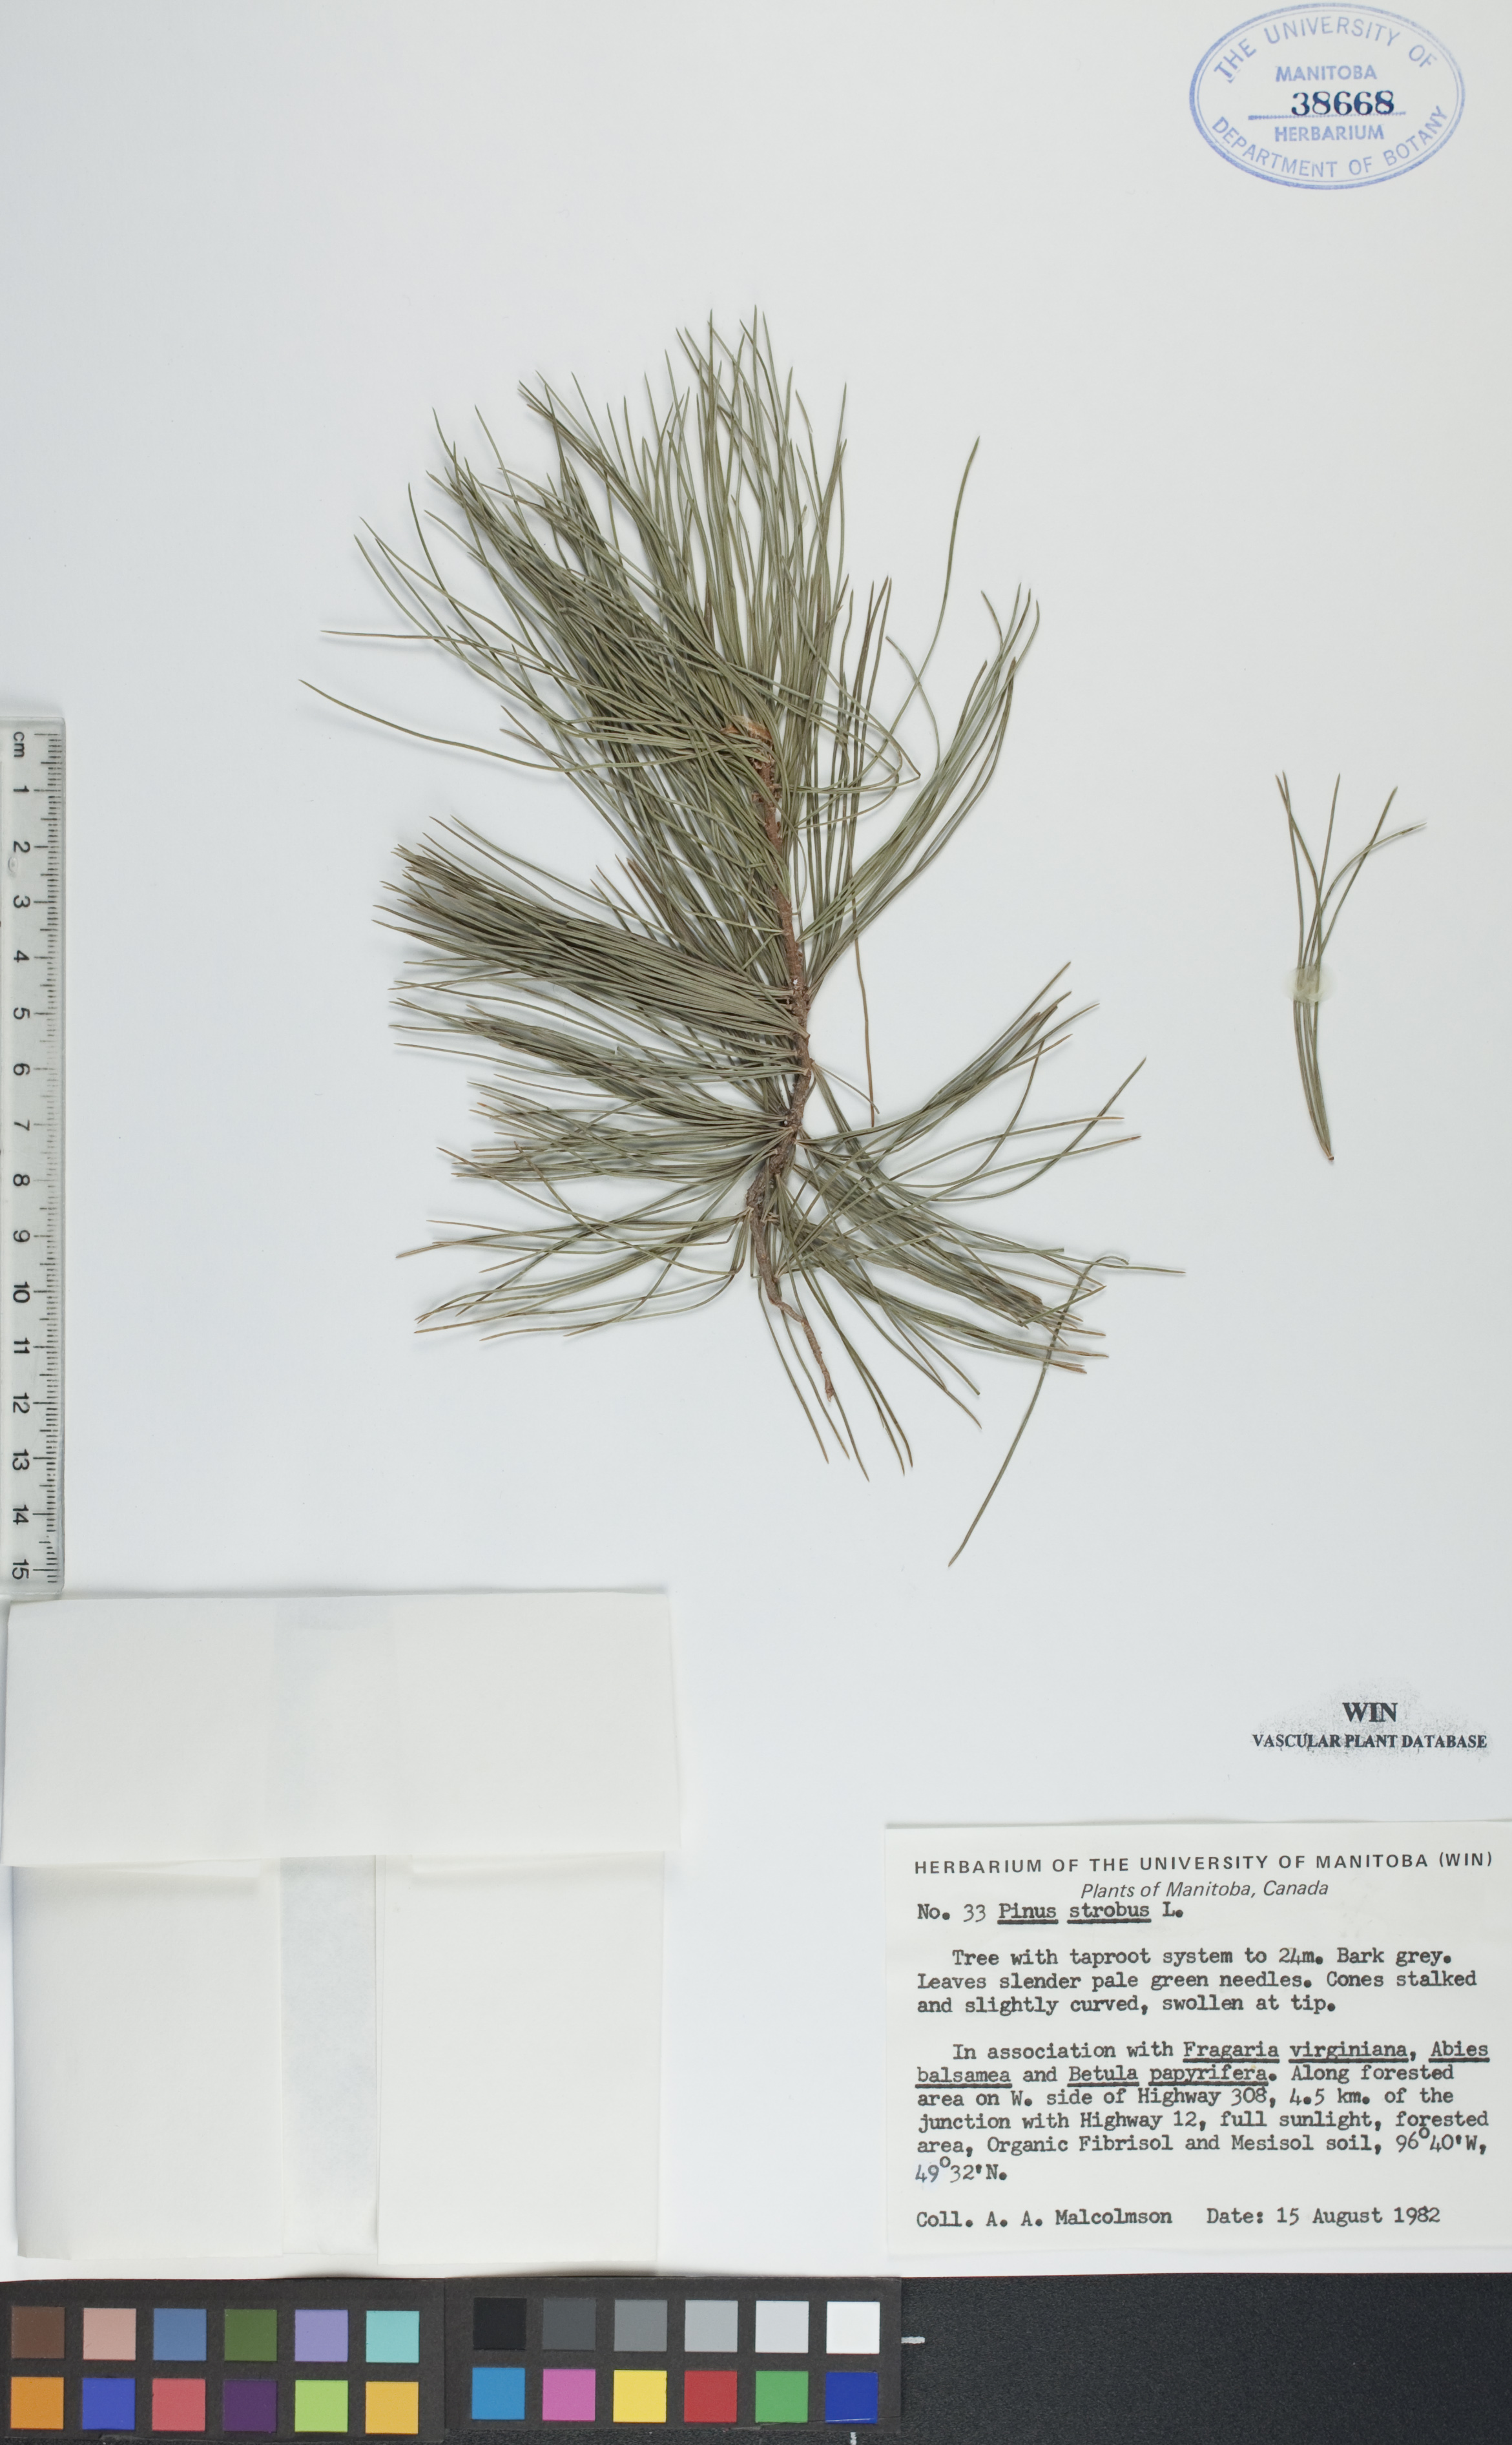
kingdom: Plantae
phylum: Tracheophyta
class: Pinopsida
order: Pinales
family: Pinaceae
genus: Pinus
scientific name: Pinus strobus
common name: Weymouth pine
